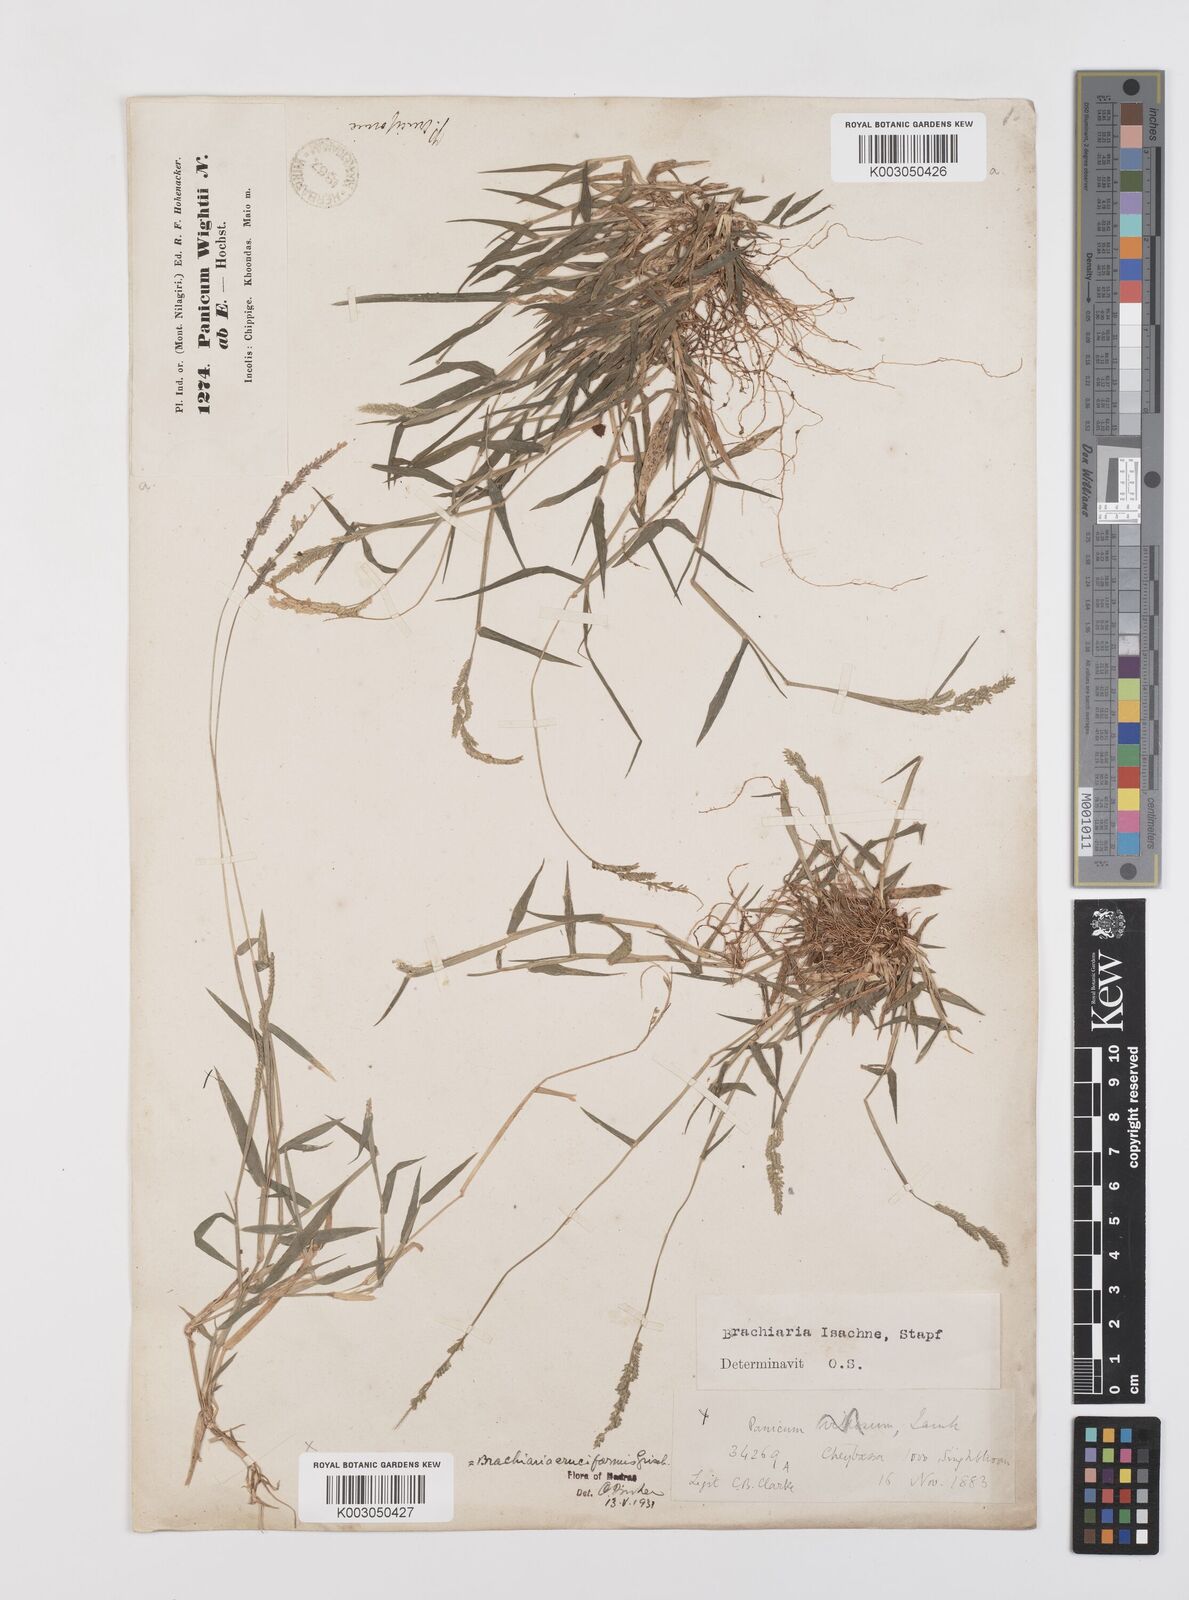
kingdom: Plantae
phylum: Tracheophyta
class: Liliopsida
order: Poales
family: Poaceae
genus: Moorochloa
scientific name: Moorochloa eruciformis
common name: Sweet signalgrass
